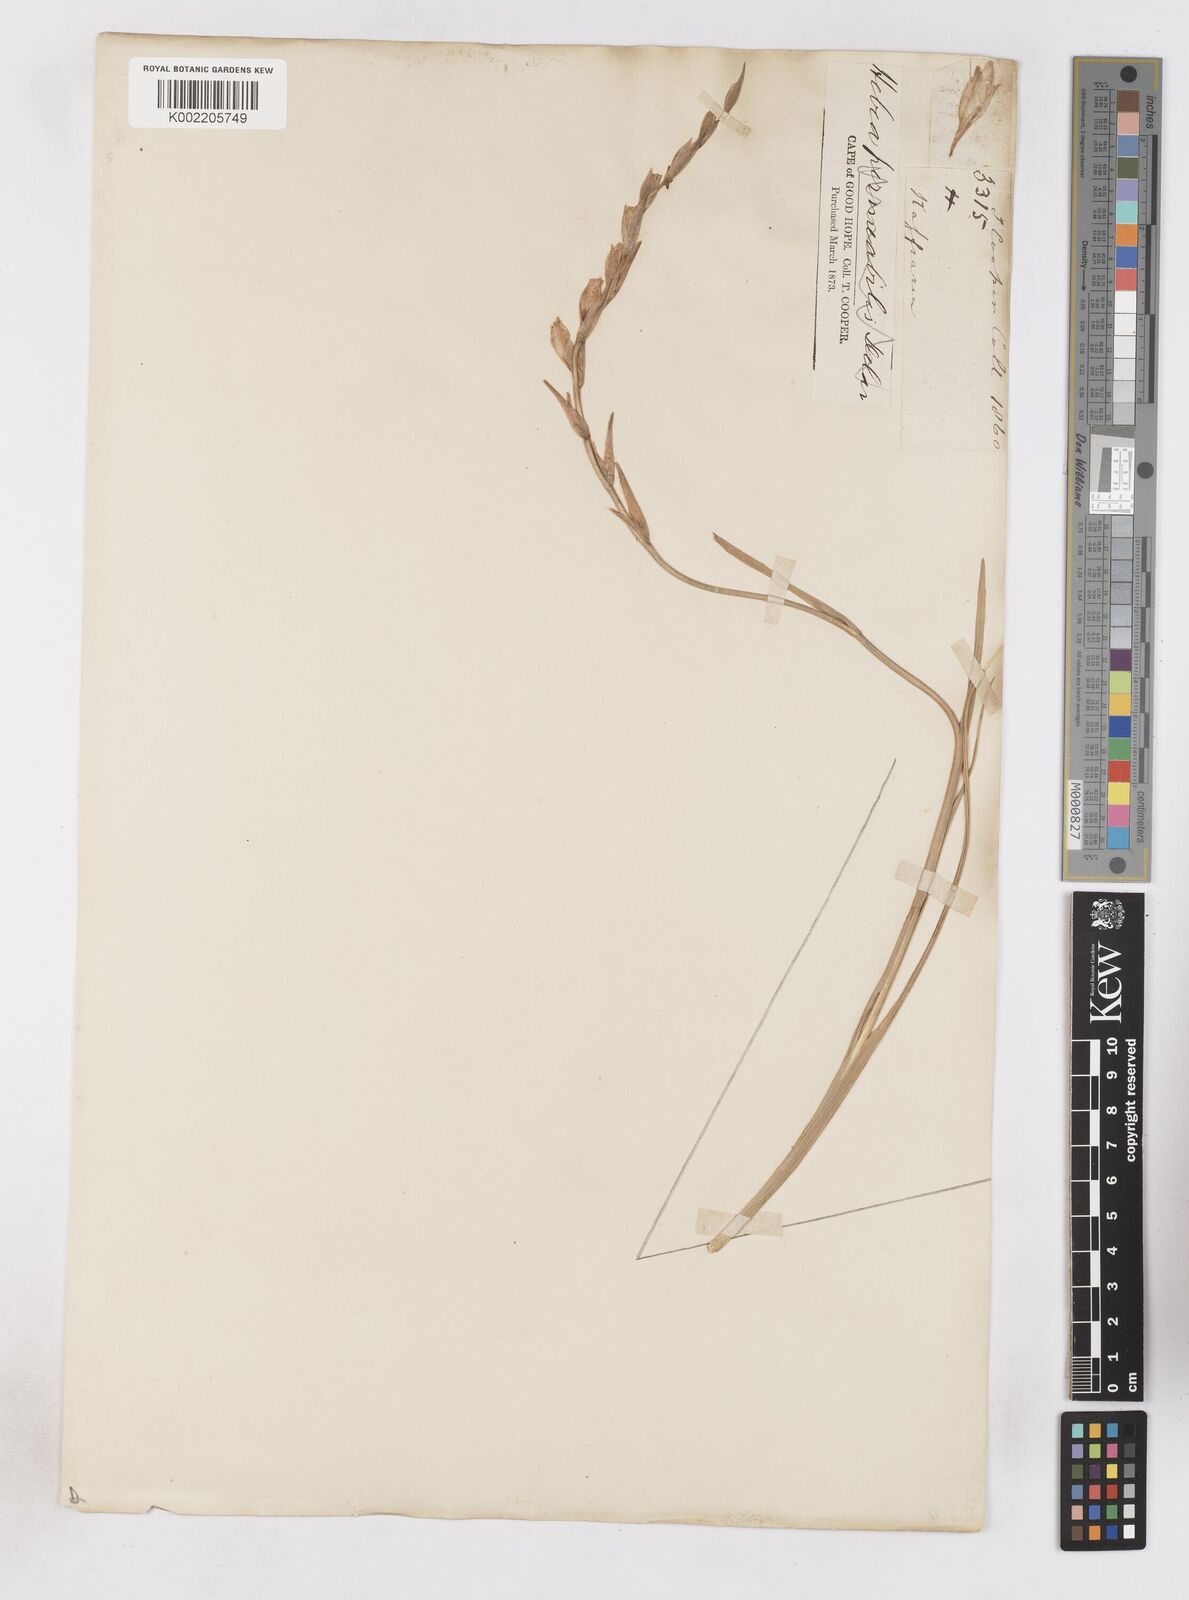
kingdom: Plantae
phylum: Tracheophyta
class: Liliopsida
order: Asparagales
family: Iridaceae
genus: Gladiolus
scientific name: Gladiolus wilsonii
